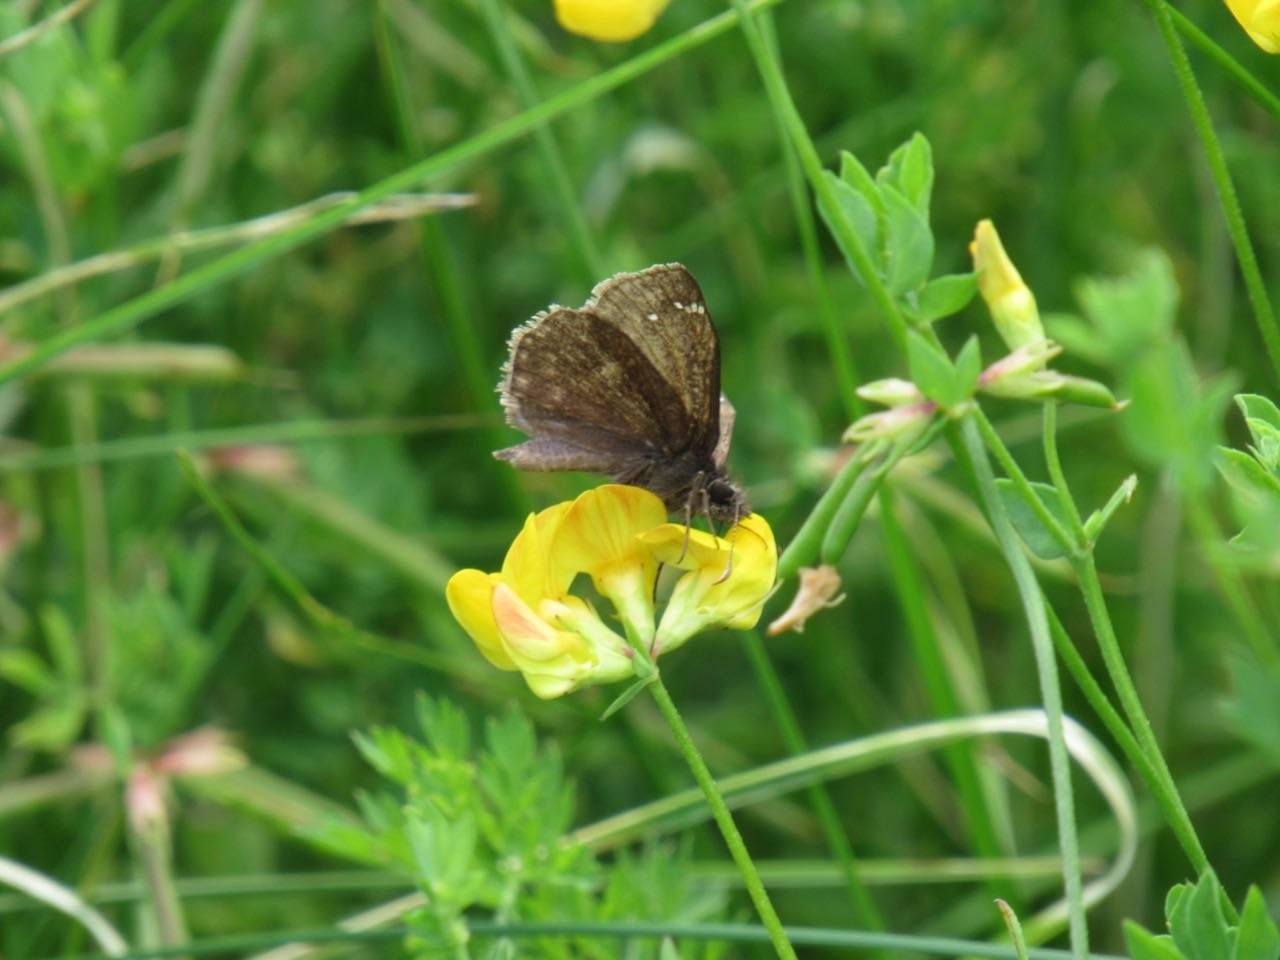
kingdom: Animalia
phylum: Arthropoda
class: Insecta
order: Lepidoptera
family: Hesperiidae
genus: Gesta
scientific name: Gesta
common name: Wild Indigo Duskywing
